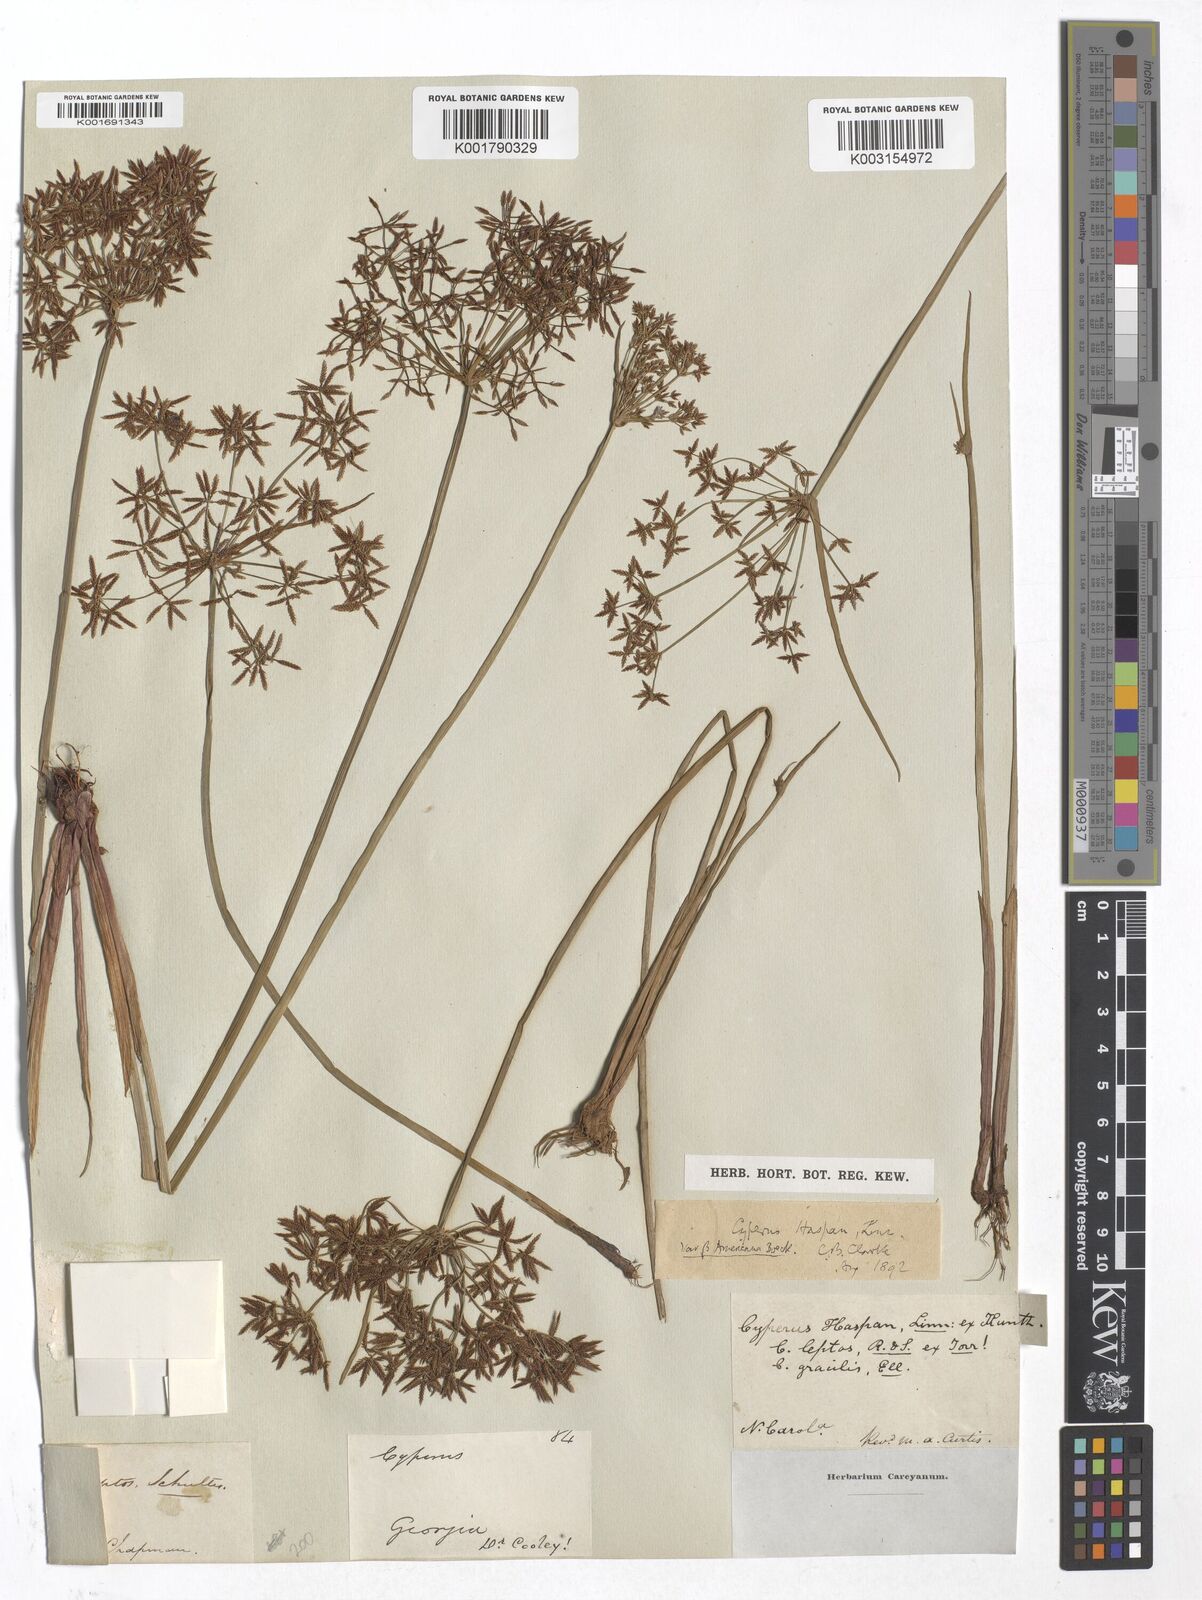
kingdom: Plantae
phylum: Tracheophyta
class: Liliopsida
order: Poales
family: Cyperaceae
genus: Cyperus
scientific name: Cyperus haspan
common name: Haspan flatsedge
